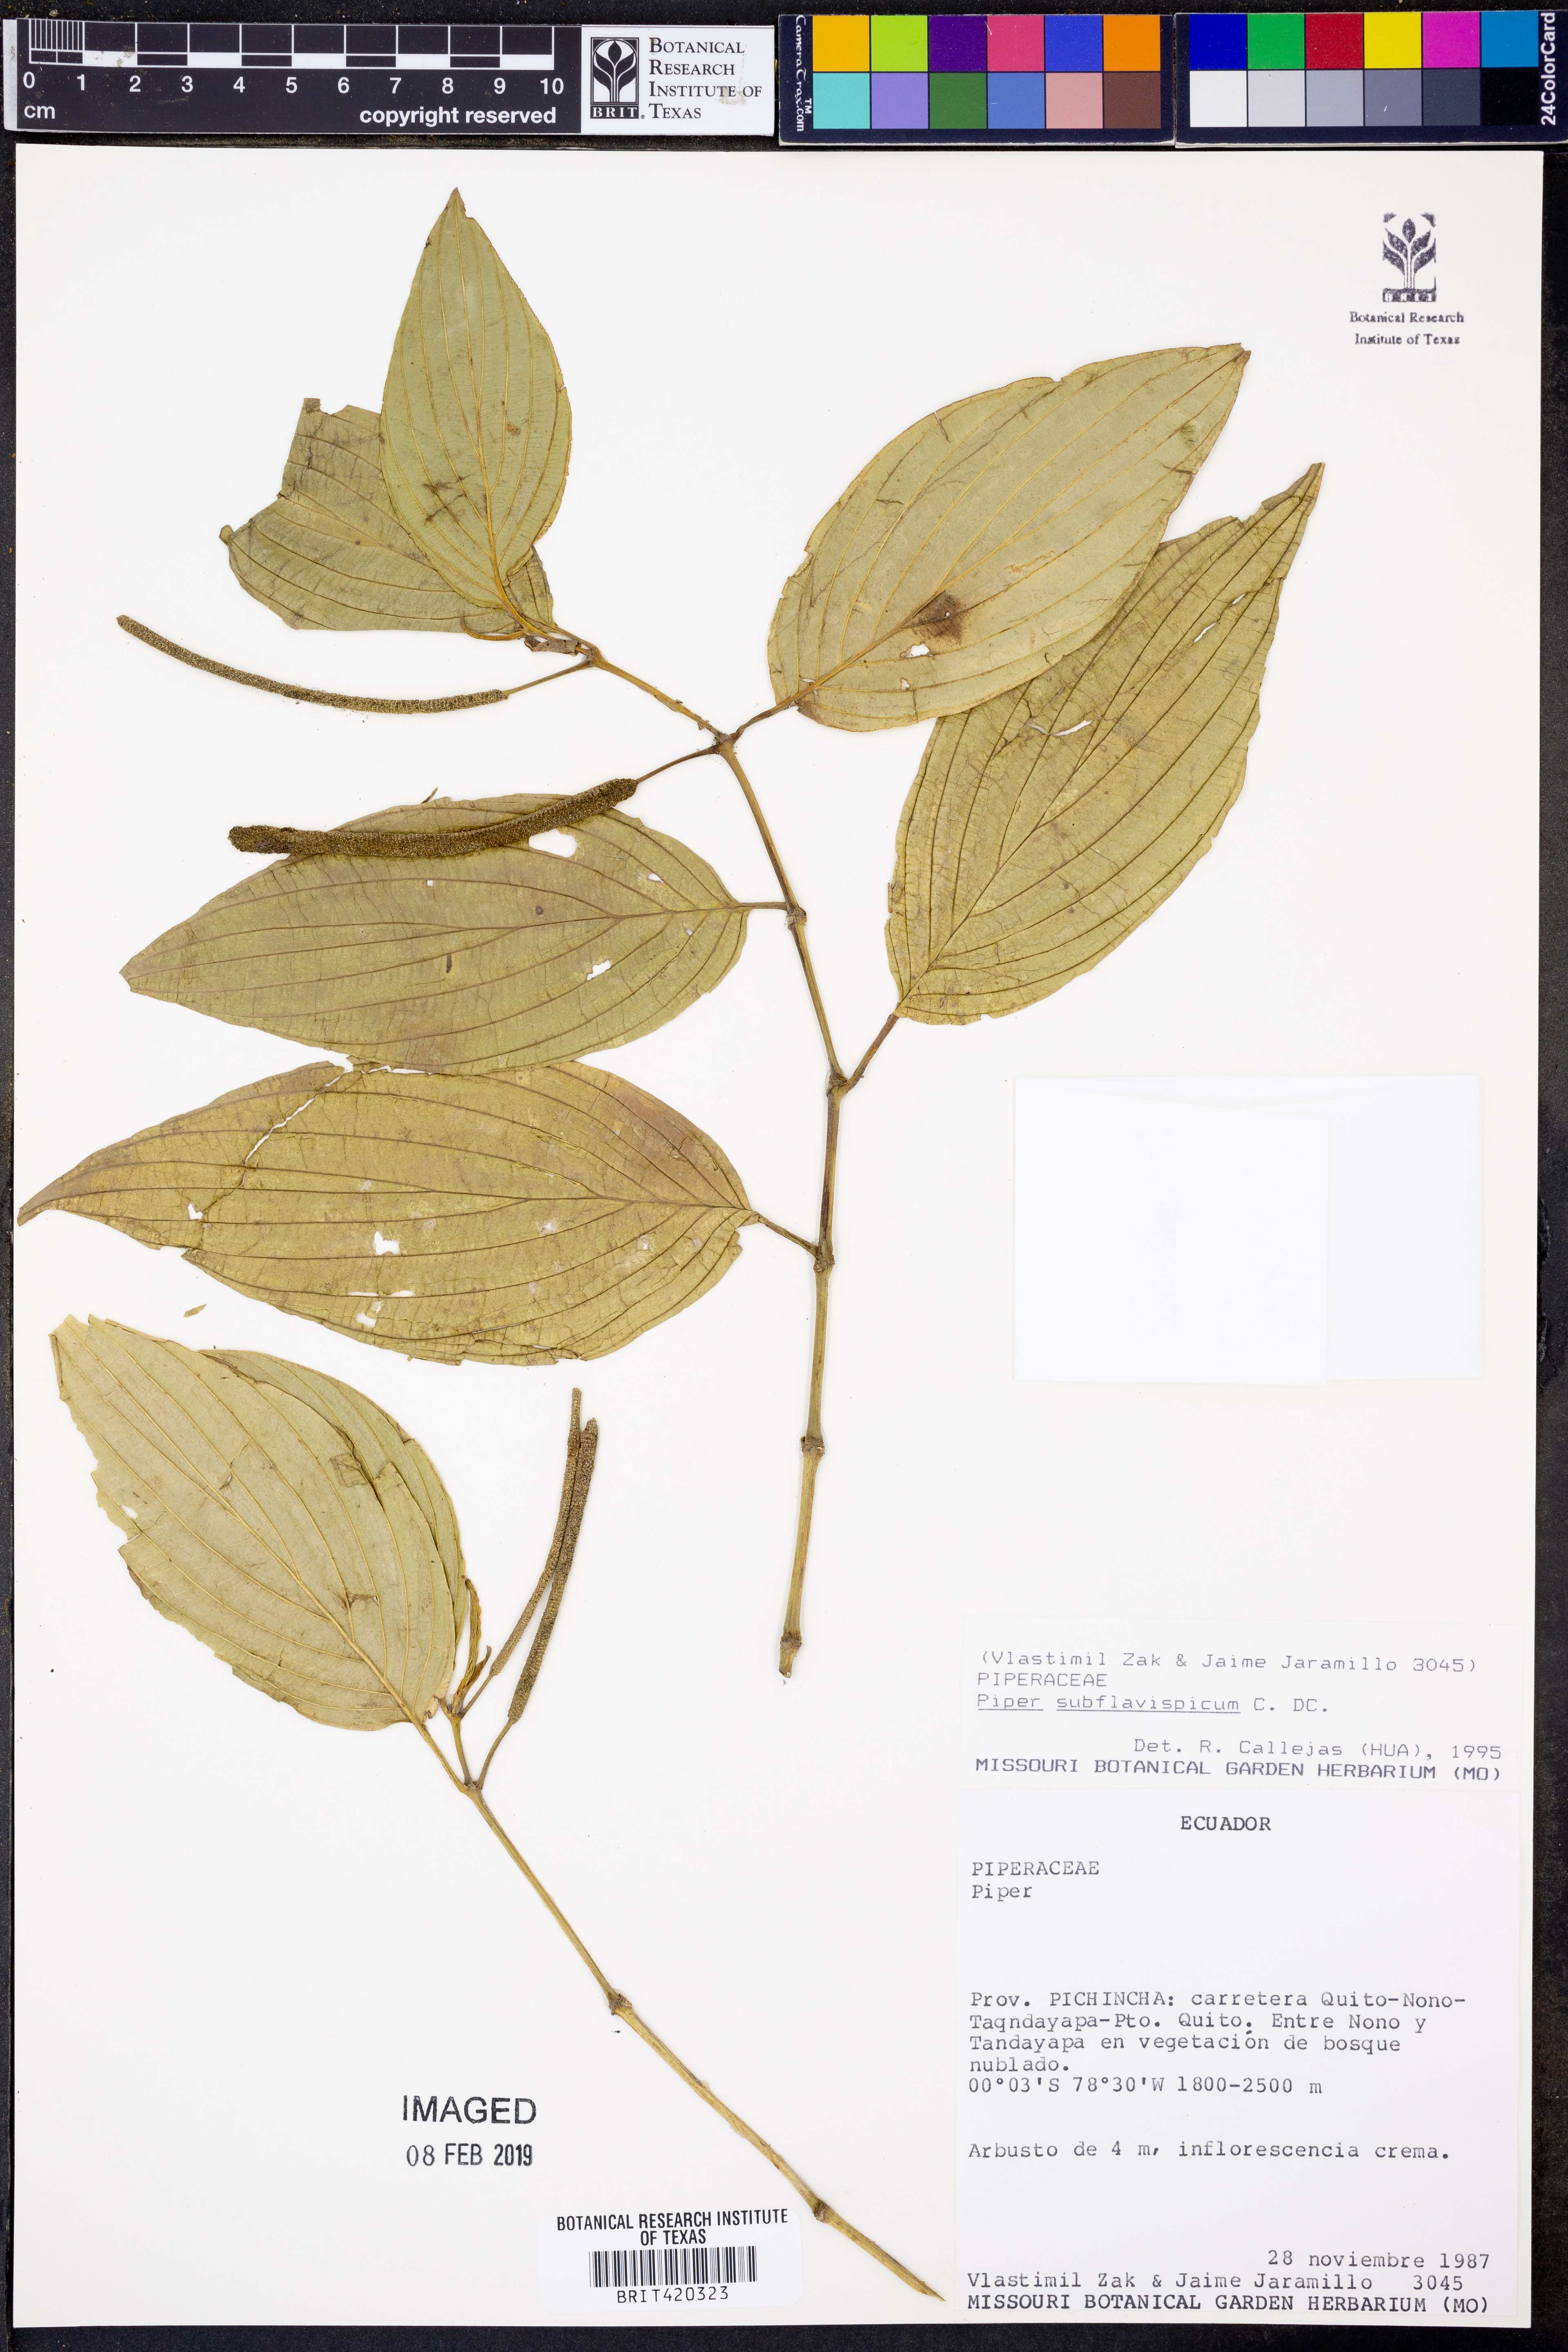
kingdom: Plantae
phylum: Tracheophyta
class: Magnoliopsida
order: Piperales
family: Piperaceae
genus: Piper
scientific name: Piper subflavispicum
